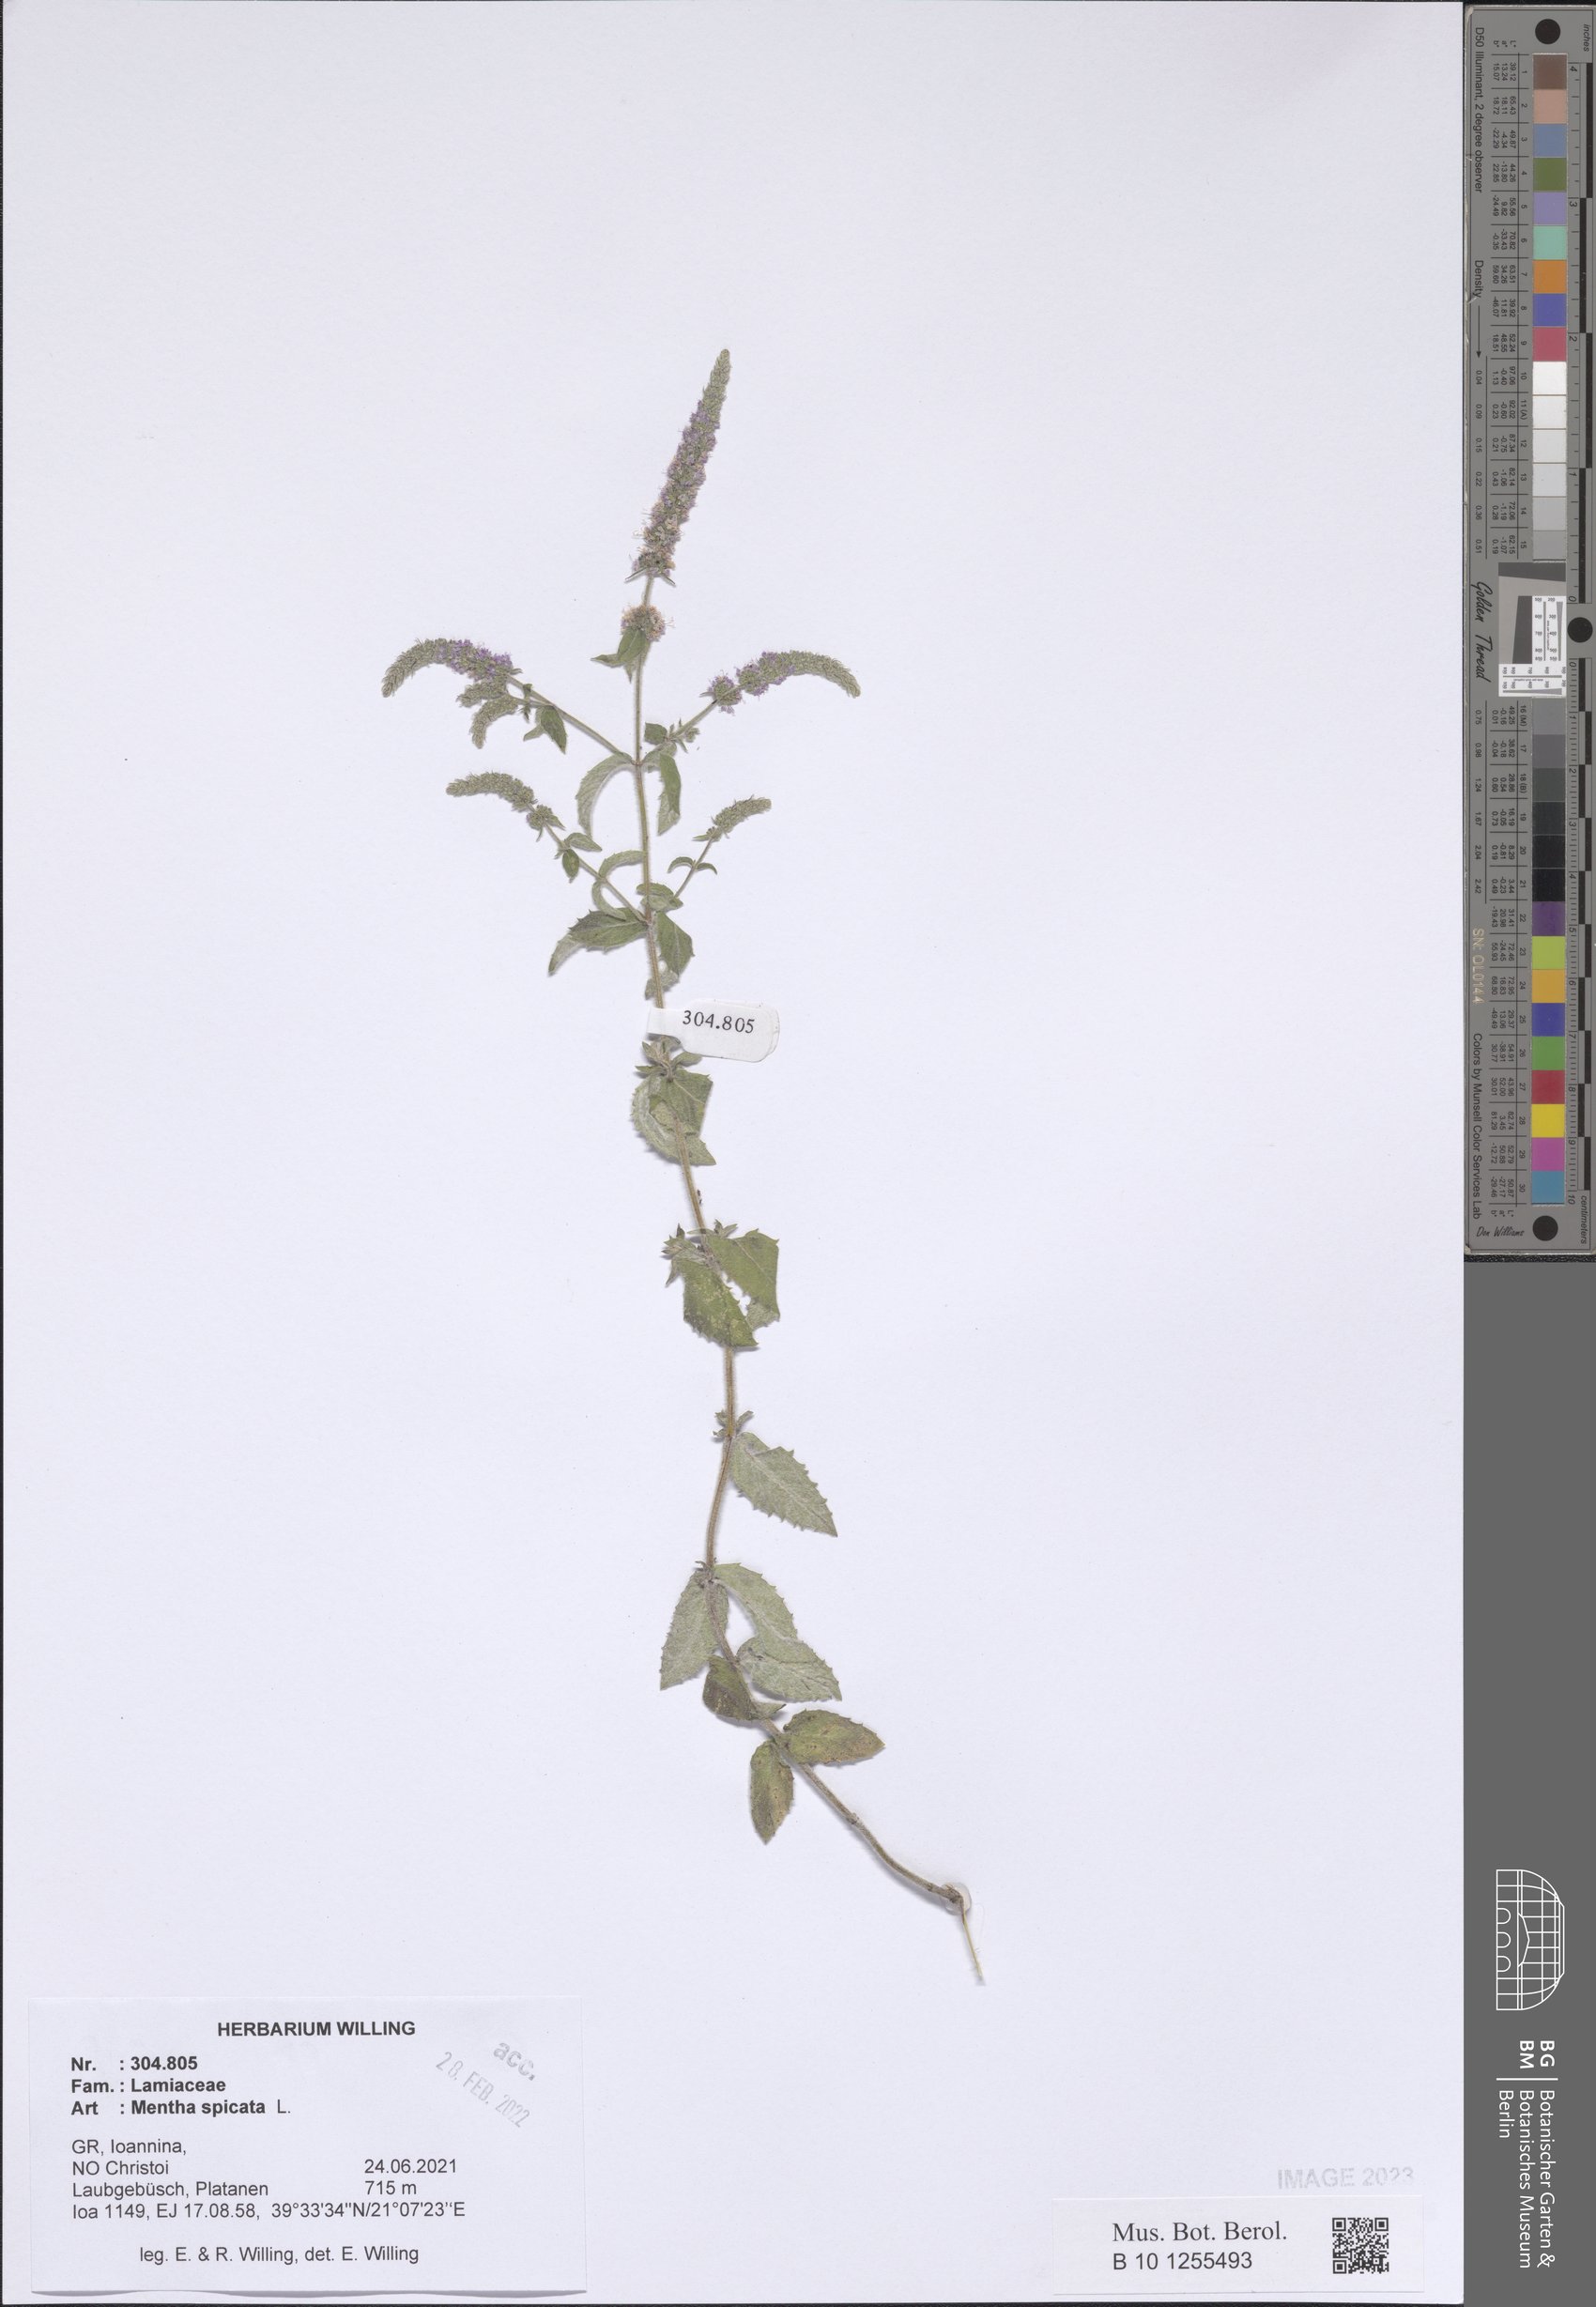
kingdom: Plantae
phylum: Tracheophyta
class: Magnoliopsida
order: Lamiales
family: Lamiaceae
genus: Mentha
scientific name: Mentha spicata
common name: Spearmint
